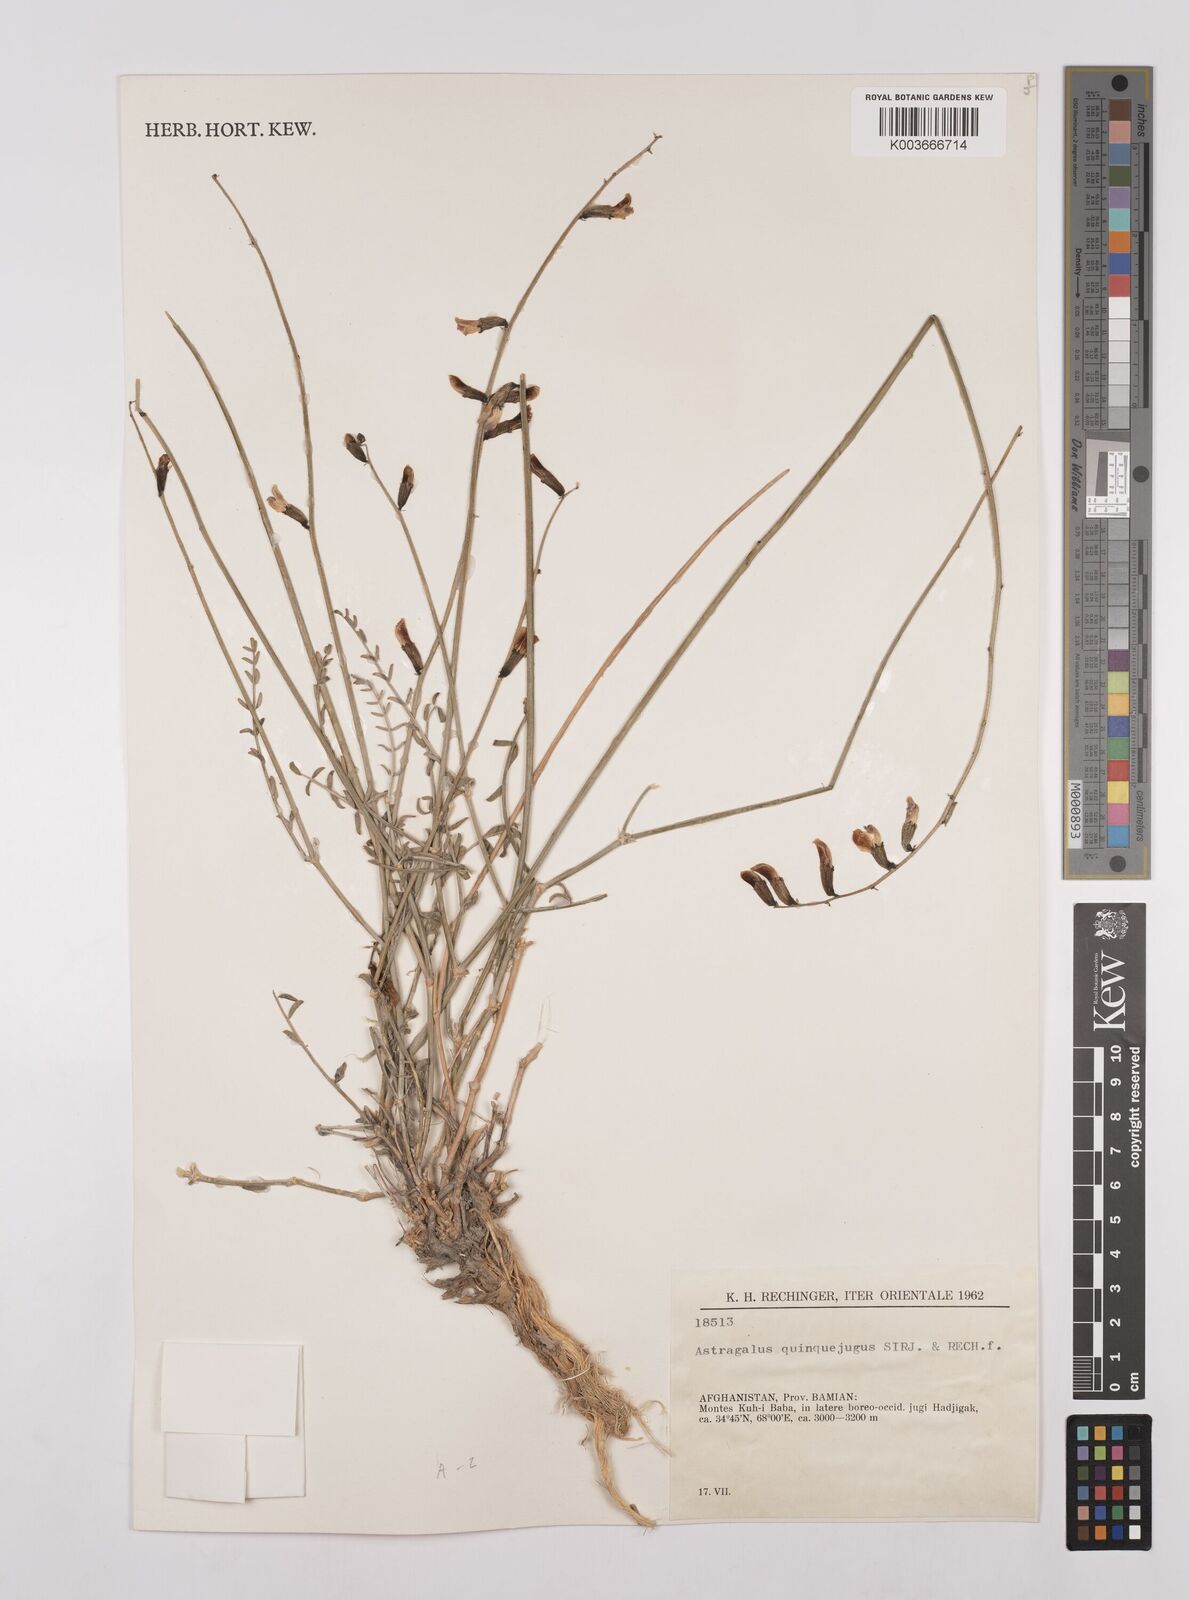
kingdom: Plantae
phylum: Tracheophyta
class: Magnoliopsida
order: Fabales
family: Fabaceae
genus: Astragalus
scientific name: Astragalus griffithii
